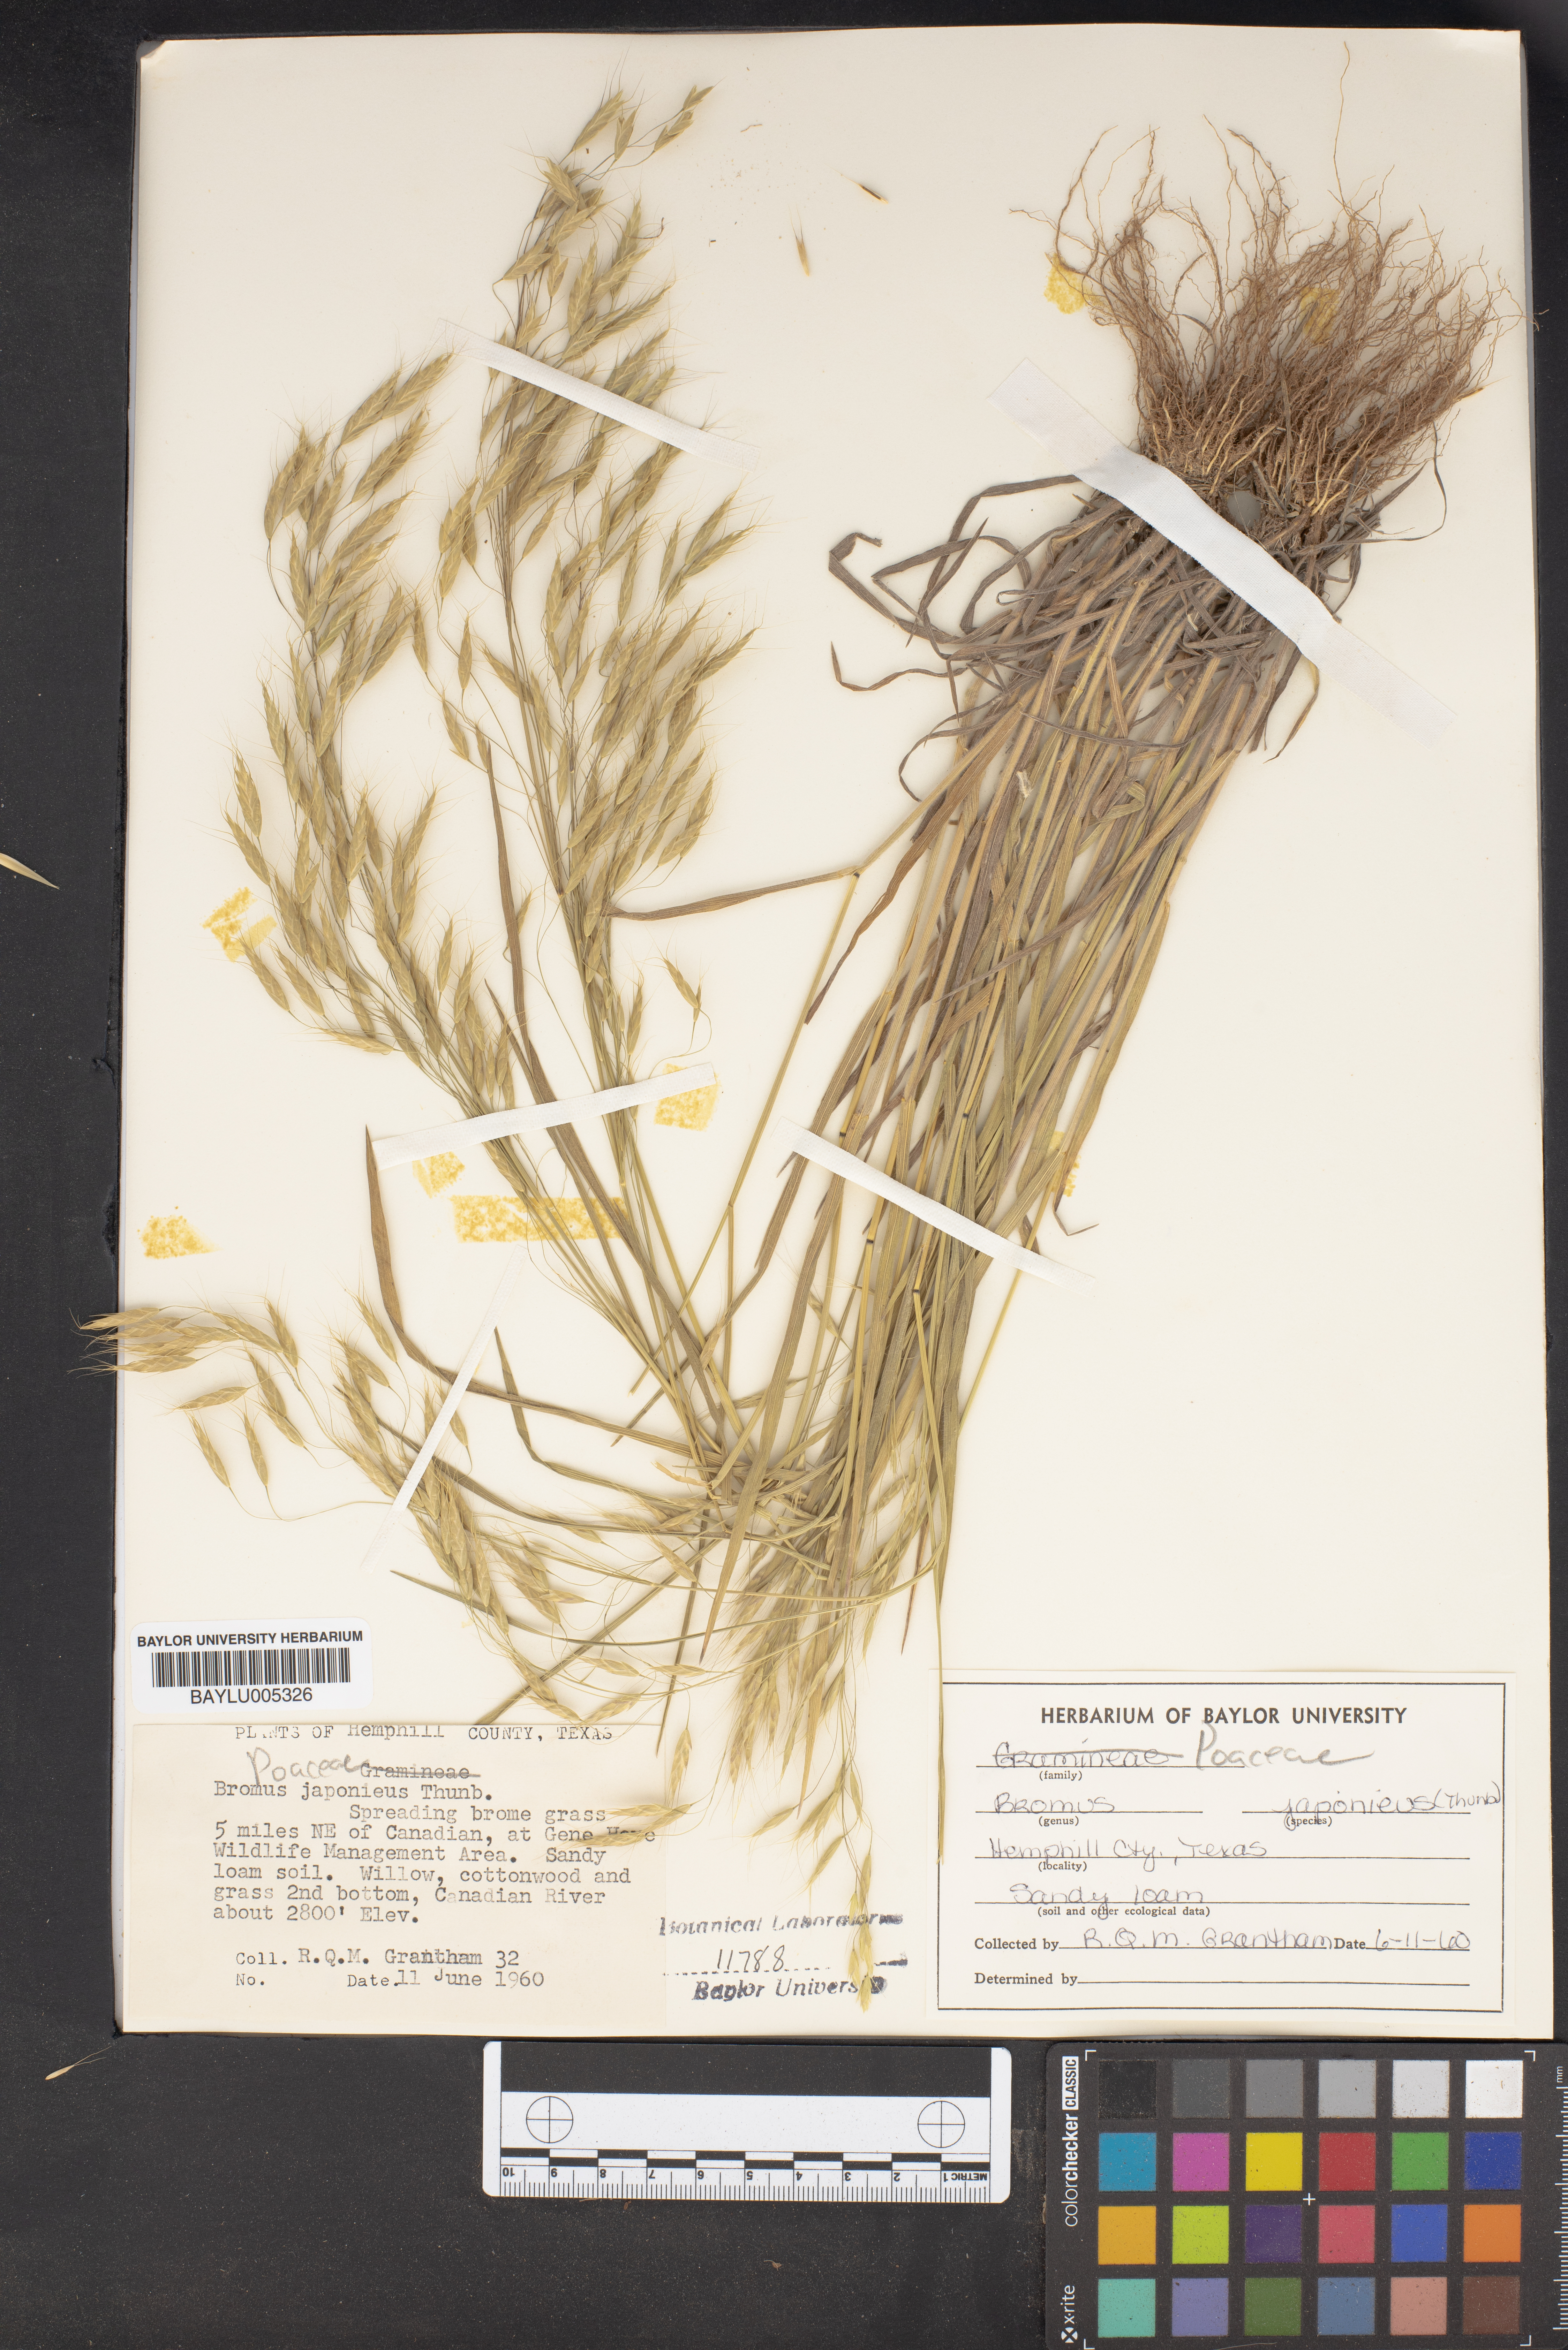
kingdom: Plantae
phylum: Tracheophyta
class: Liliopsida
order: Poales
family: Poaceae
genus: Bromus
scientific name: Bromus japonicus
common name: Japanese brome
